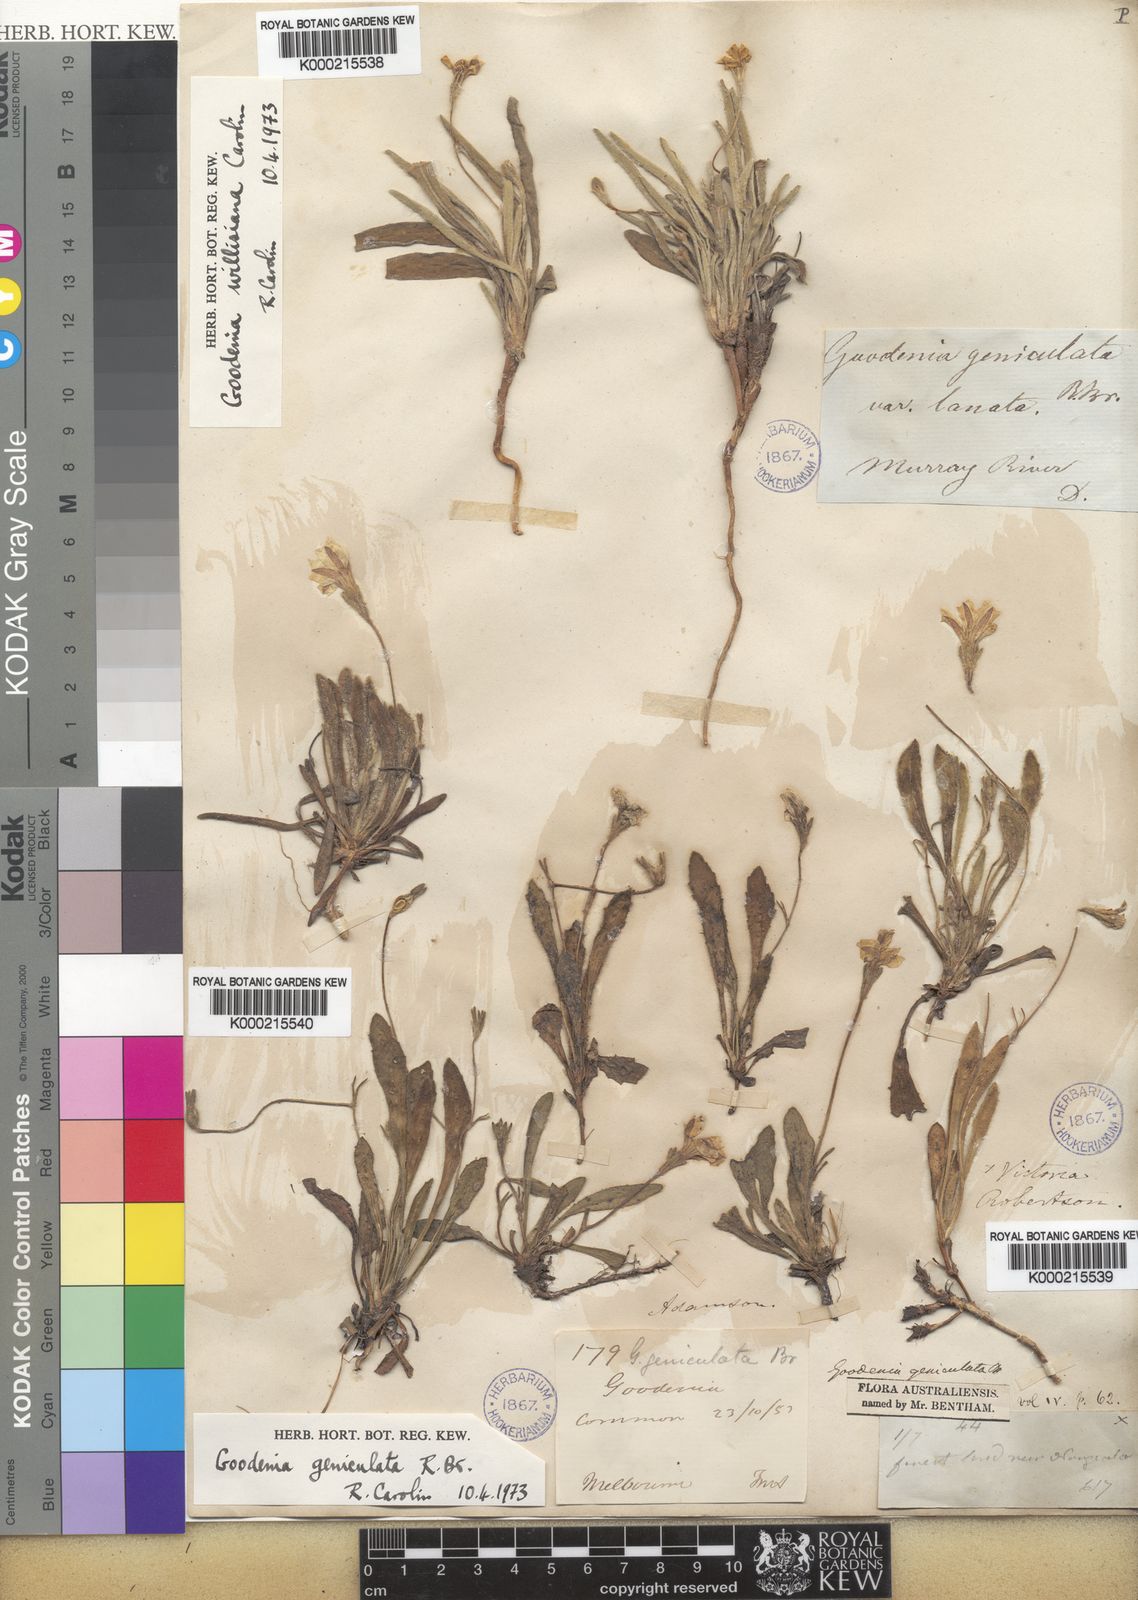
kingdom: Plantae
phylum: Tracheophyta
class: Magnoliopsida
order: Asterales
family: Goodeniaceae
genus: Goodenia
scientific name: Goodenia geniculata
